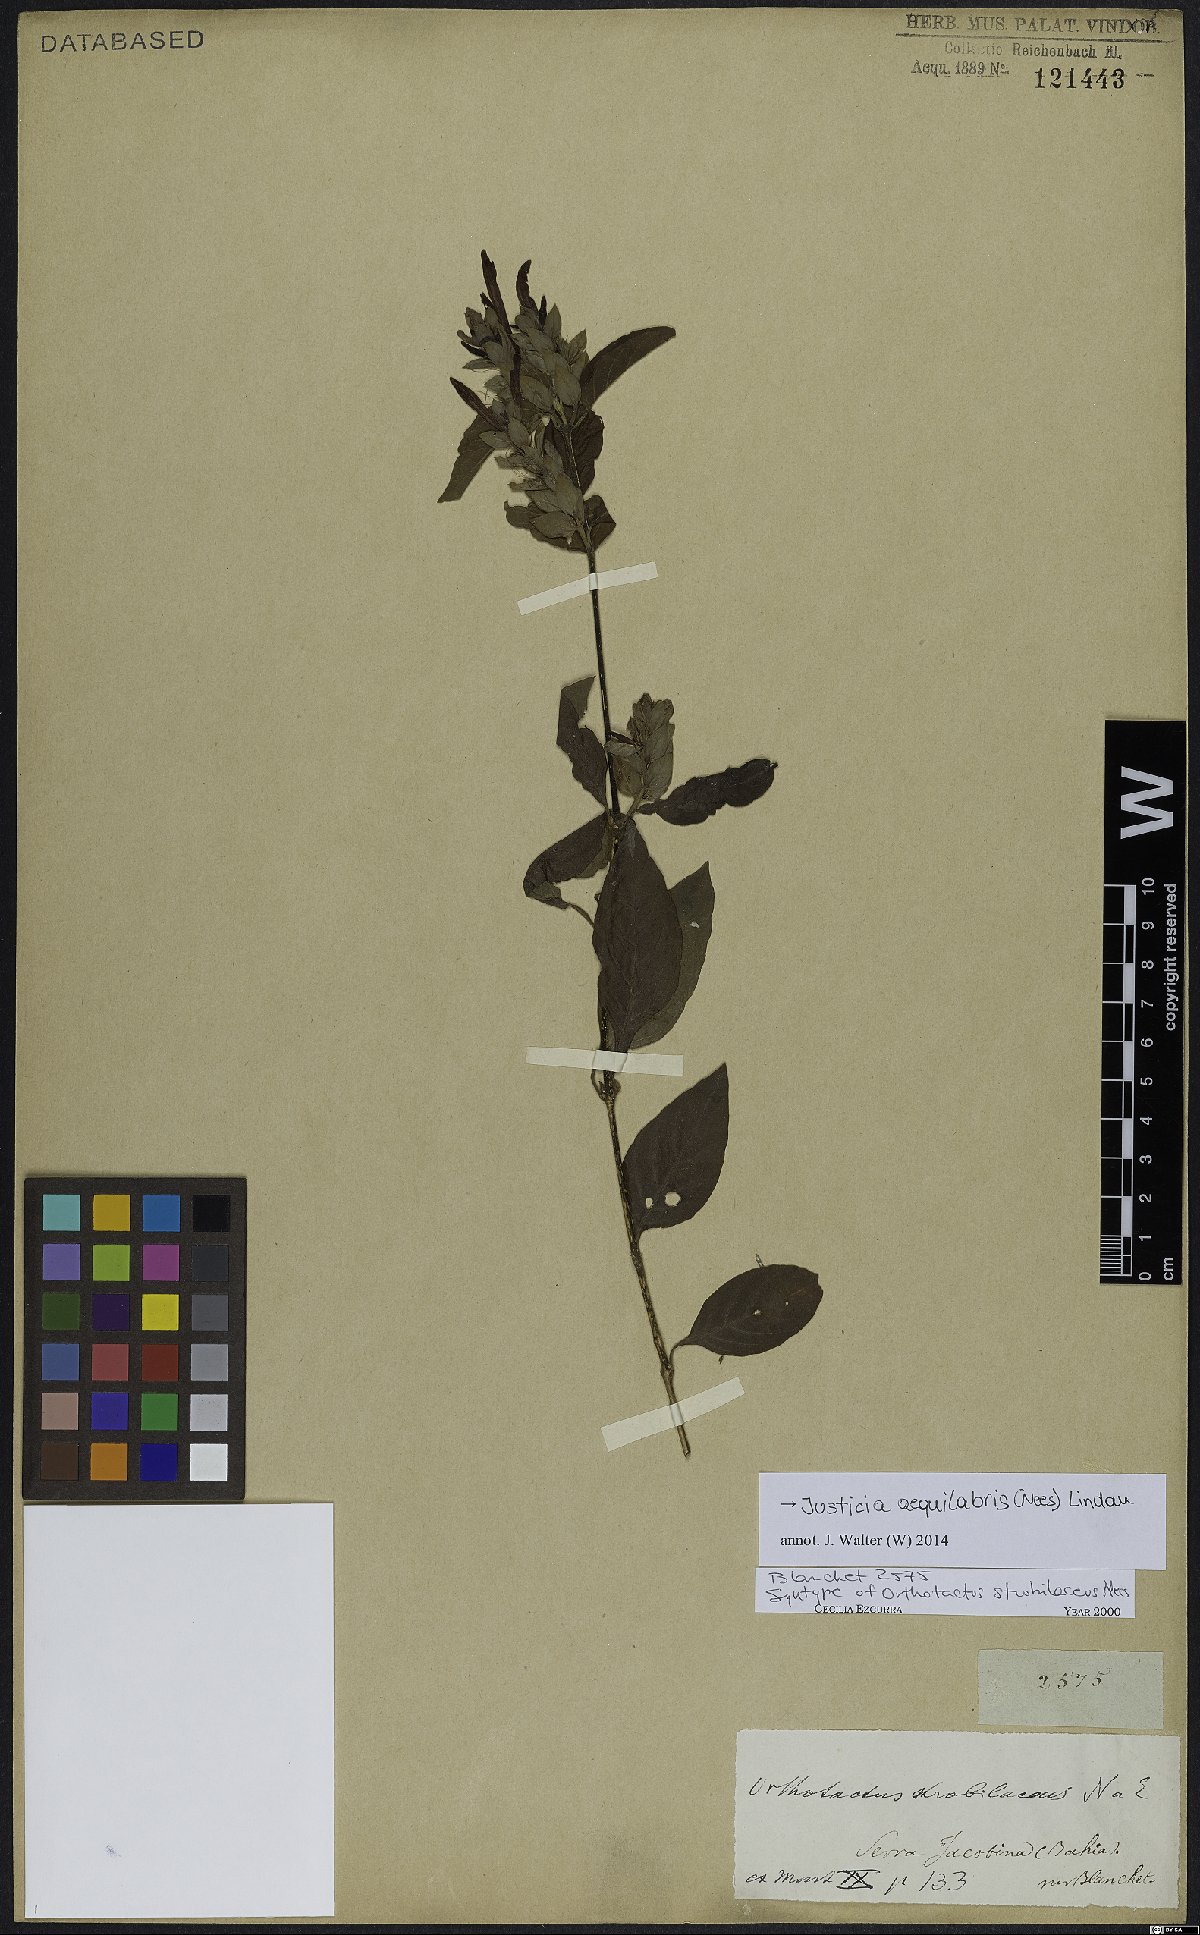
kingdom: Plantae
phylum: Tracheophyta
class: Magnoliopsida
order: Lamiales
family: Acanthaceae
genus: Justicia
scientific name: Justicia aequilabris
